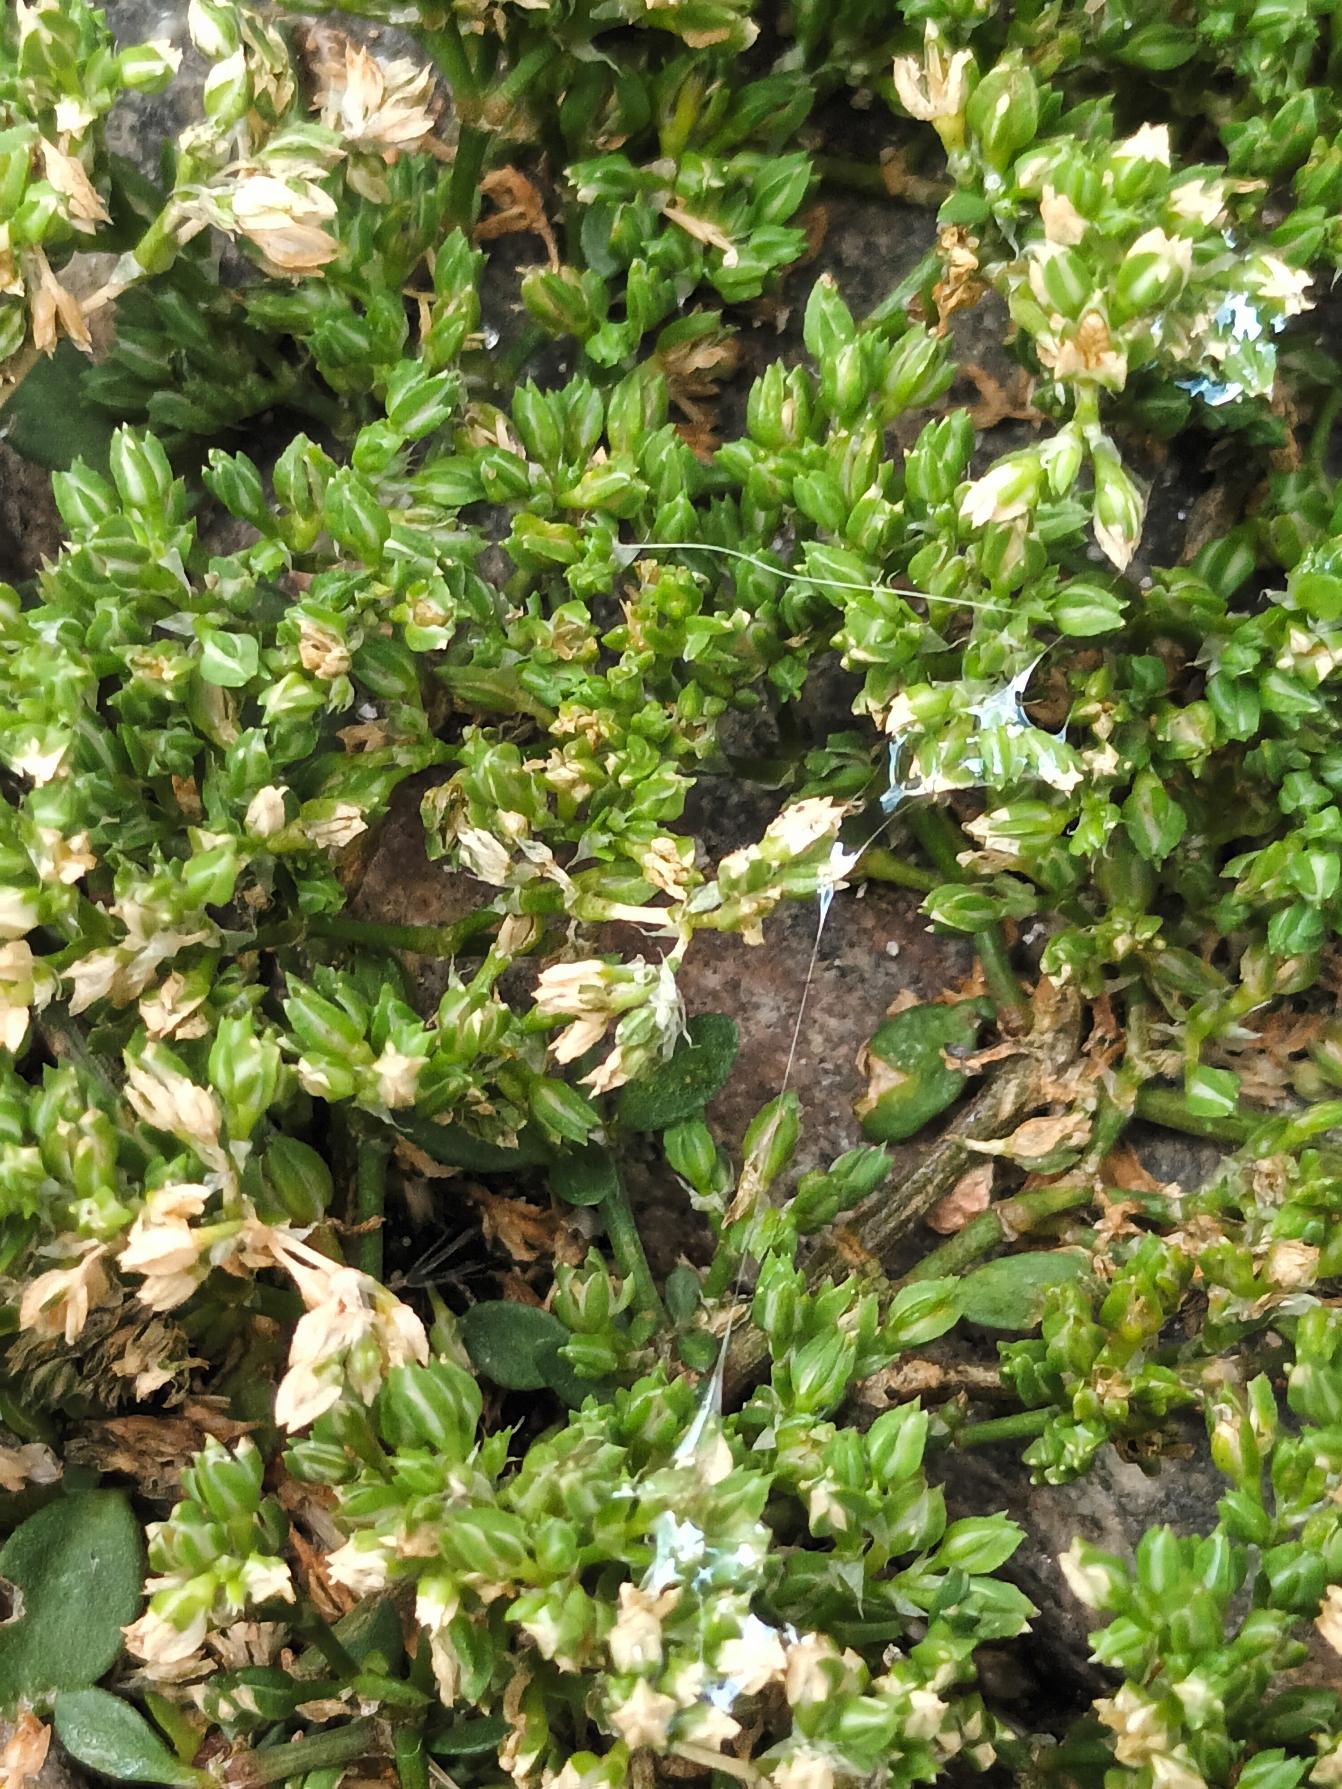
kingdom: Plantae
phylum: Tracheophyta
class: Magnoliopsida
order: Caryophyllales
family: Caryophyllaceae
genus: Polycarpon
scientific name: Polycarpon tetraphyllum
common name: Firbladet mangefrø
